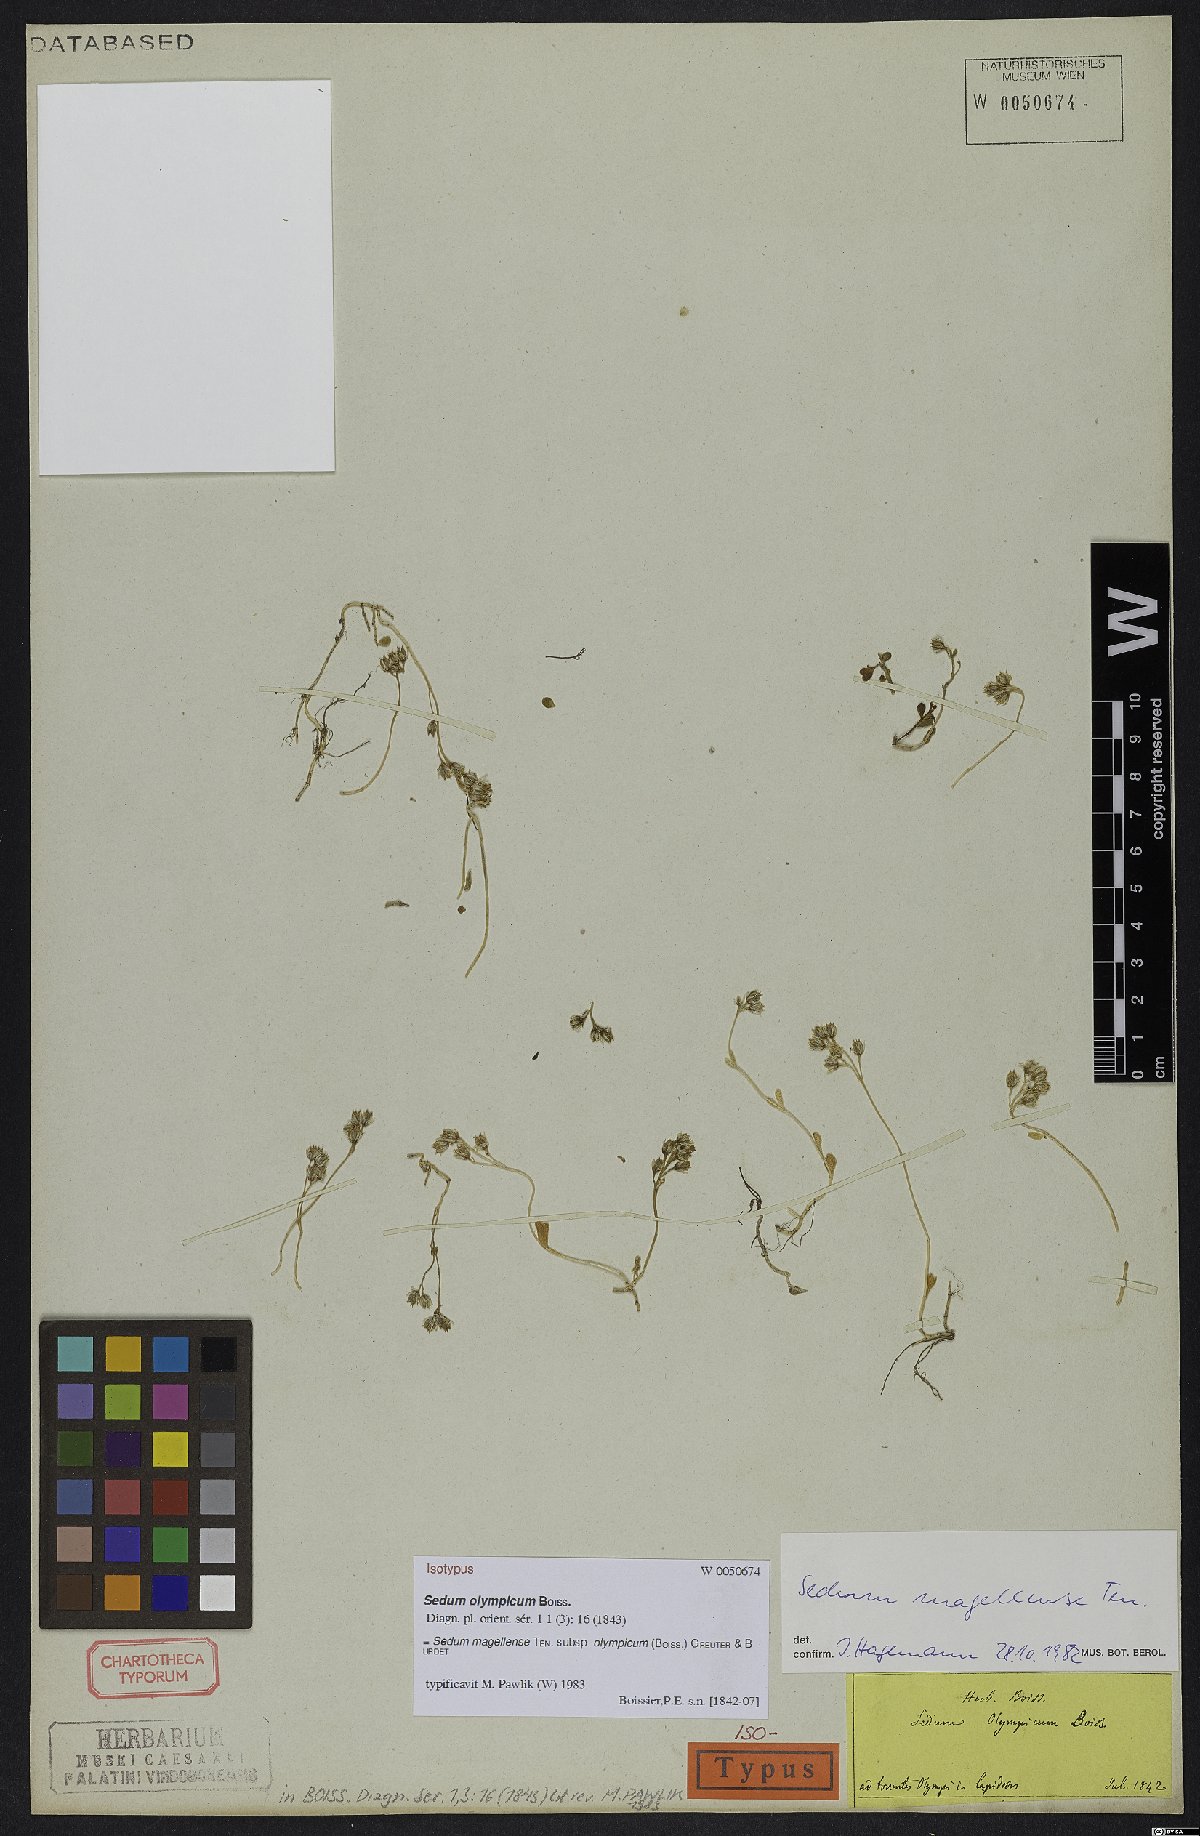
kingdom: Plantae
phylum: Tracheophyta
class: Magnoliopsida
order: Saxifragales
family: Crassulaceae
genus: Sedum
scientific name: Sedum magellense
